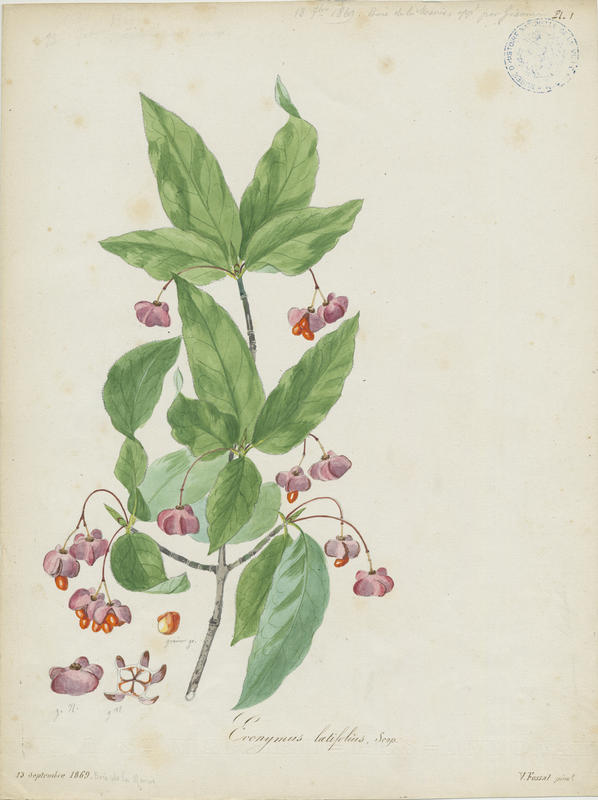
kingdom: Plantae
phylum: Tracheophyta
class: Magnoliopsida
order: Celastrales
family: Celastraceae
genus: Euonymus
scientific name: Euonymus latifolius
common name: Large-leaved spindle
